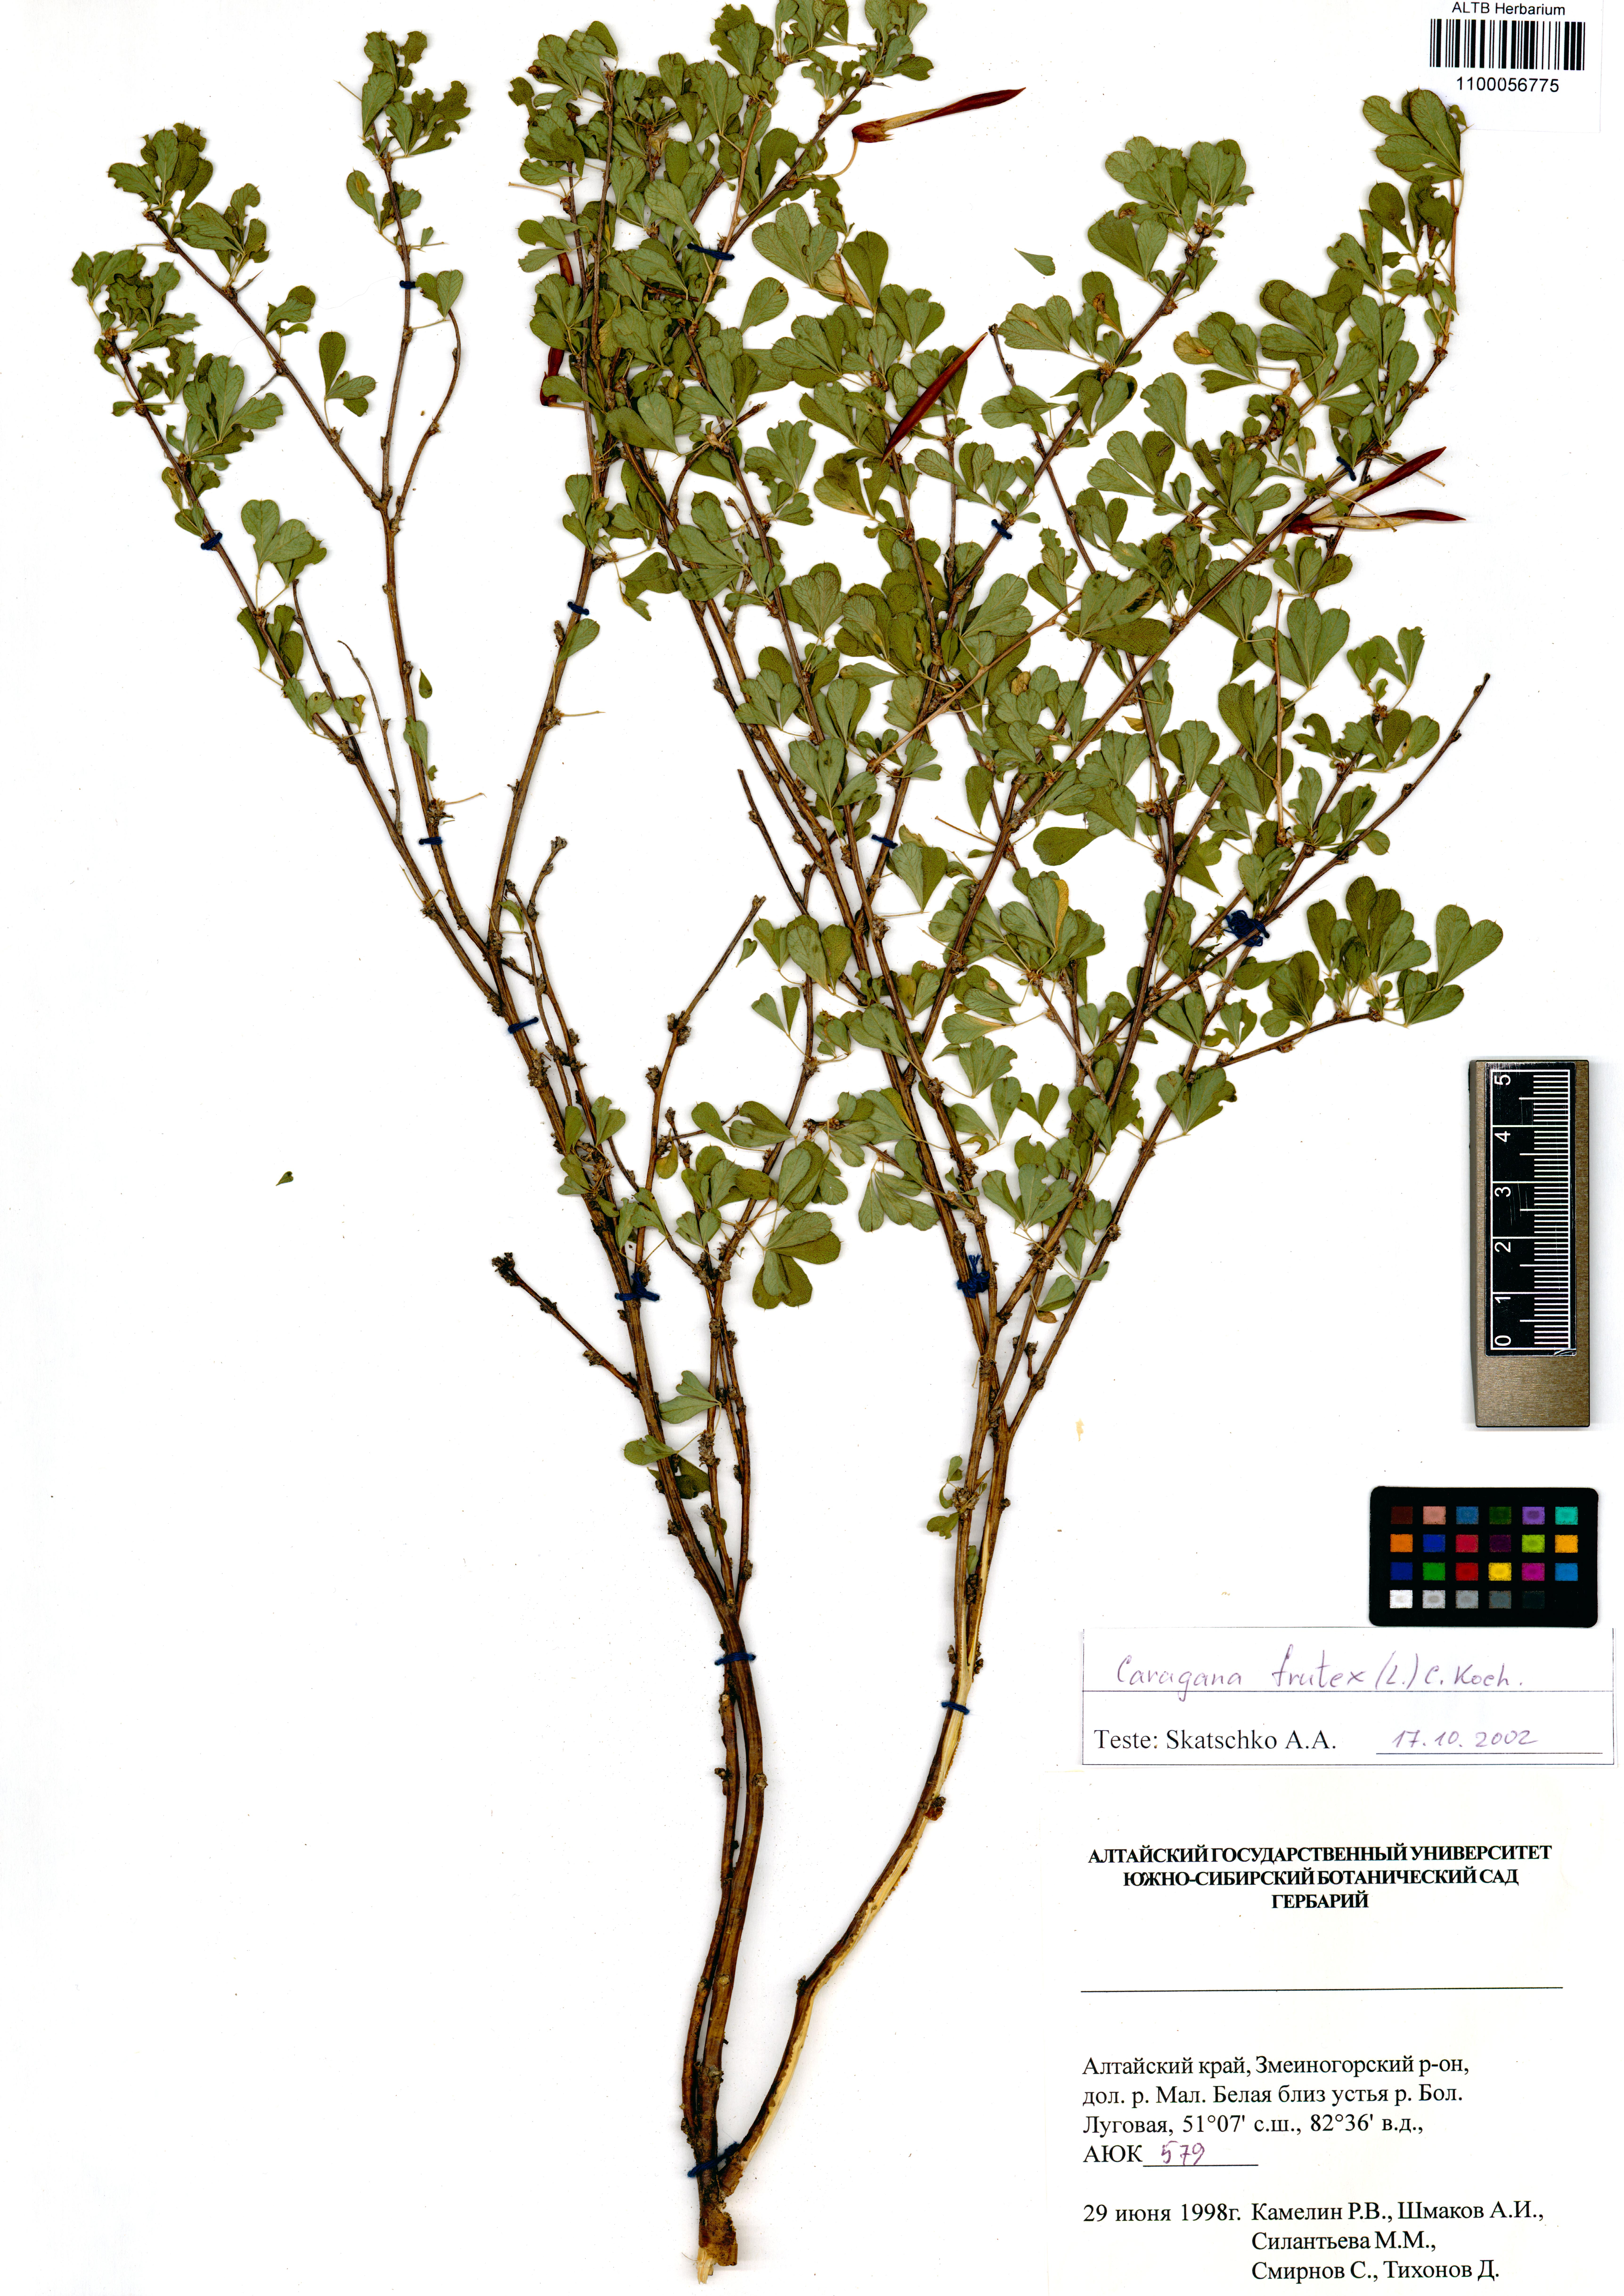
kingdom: Plantae
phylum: Tracheophyta
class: Magnoliopsida
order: Fabales
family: Fabaceae
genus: Caragana
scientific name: Caragana frutex
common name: Russian peashrub
